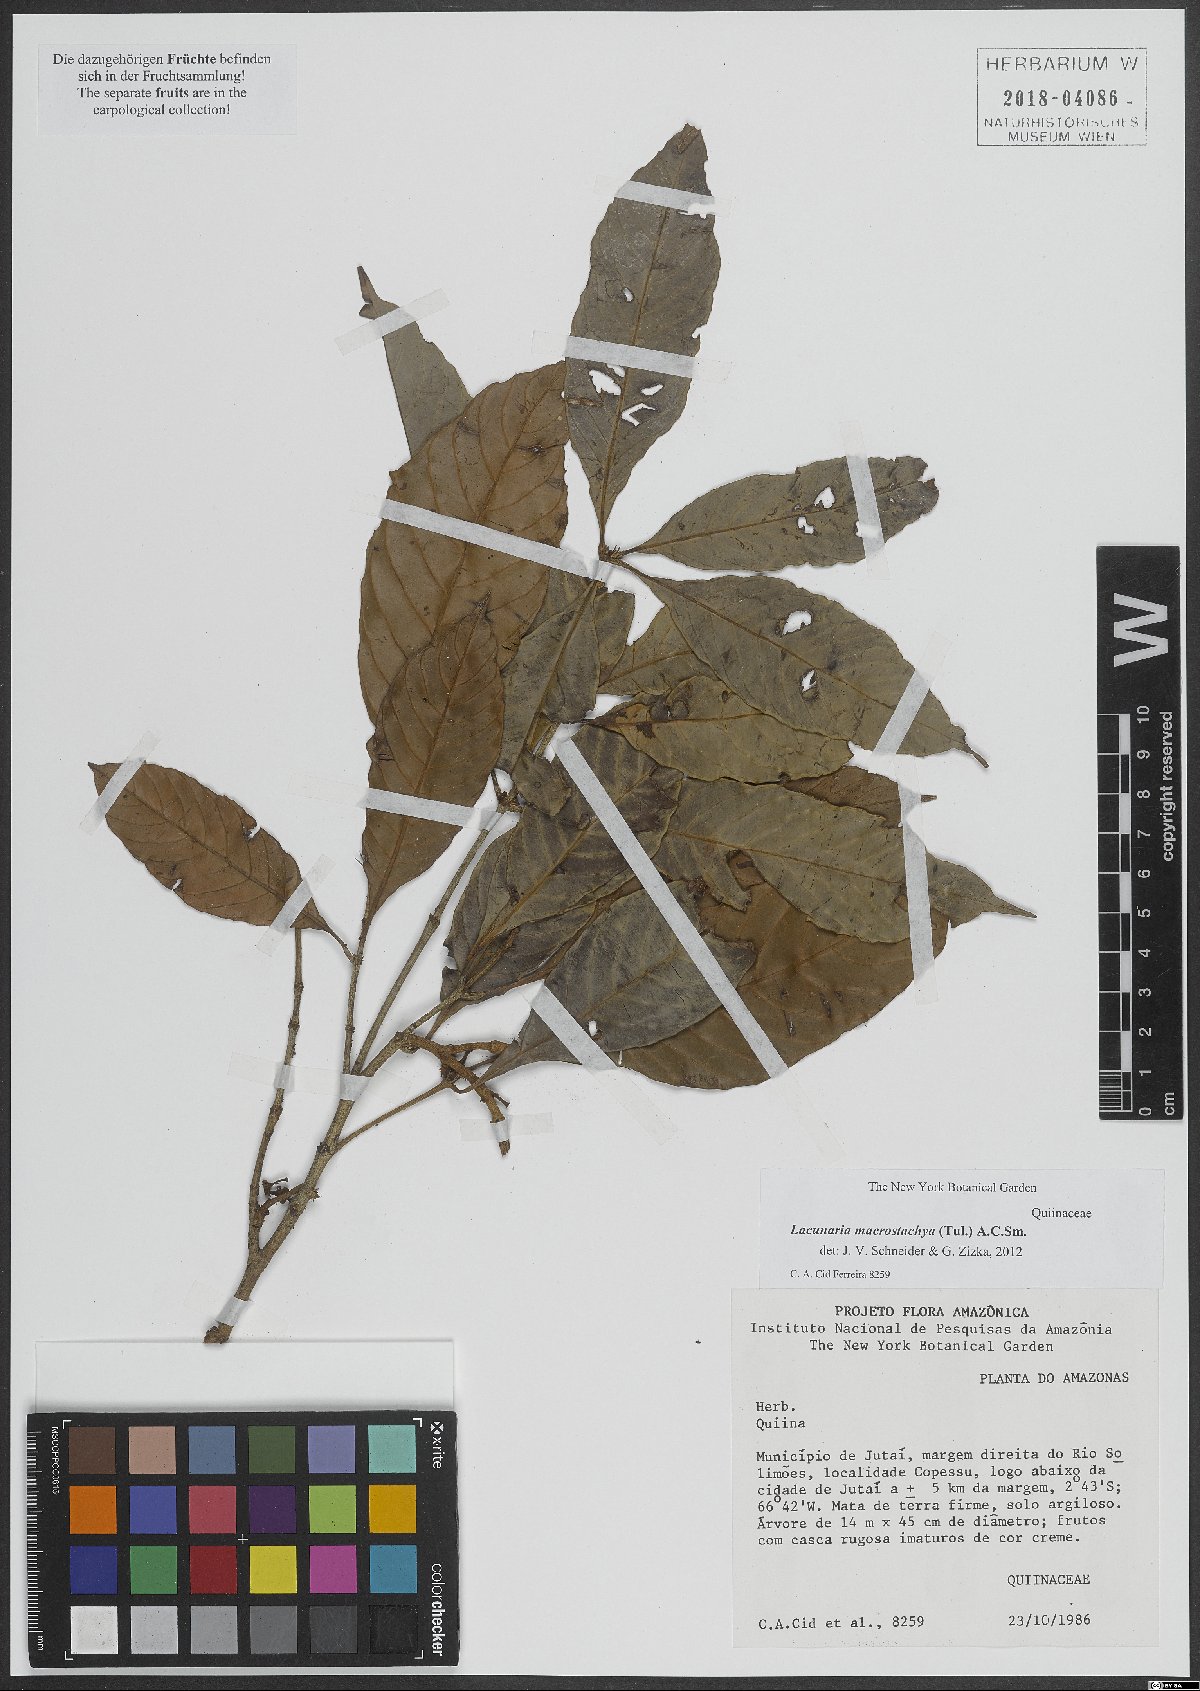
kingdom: Plantae
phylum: Tracheophyta
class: Magnoliopsida
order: Malpighiales
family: Quiinaceae
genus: Lacunaria
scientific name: Lacunaria macrostachya
